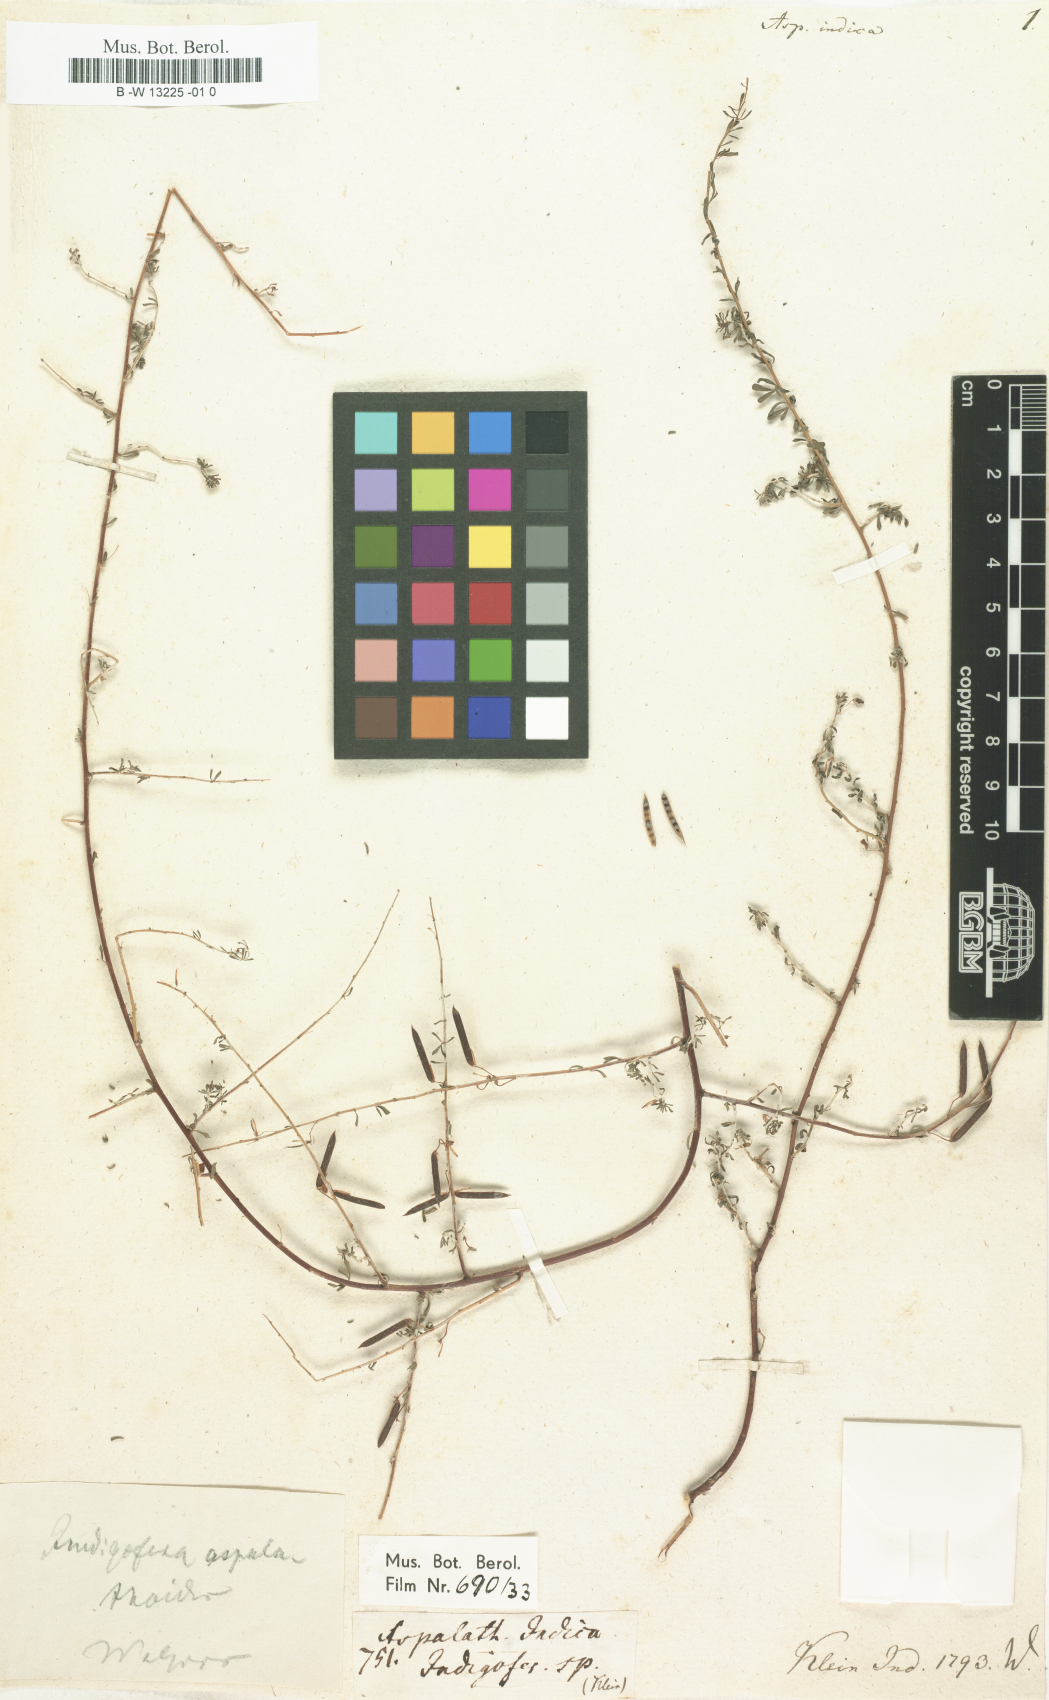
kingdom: Plantae
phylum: Tracheophyta
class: Magnoliopsida
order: Fabales
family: Fabaceae
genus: Indigofera
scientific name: Indigofera aspalathoides
